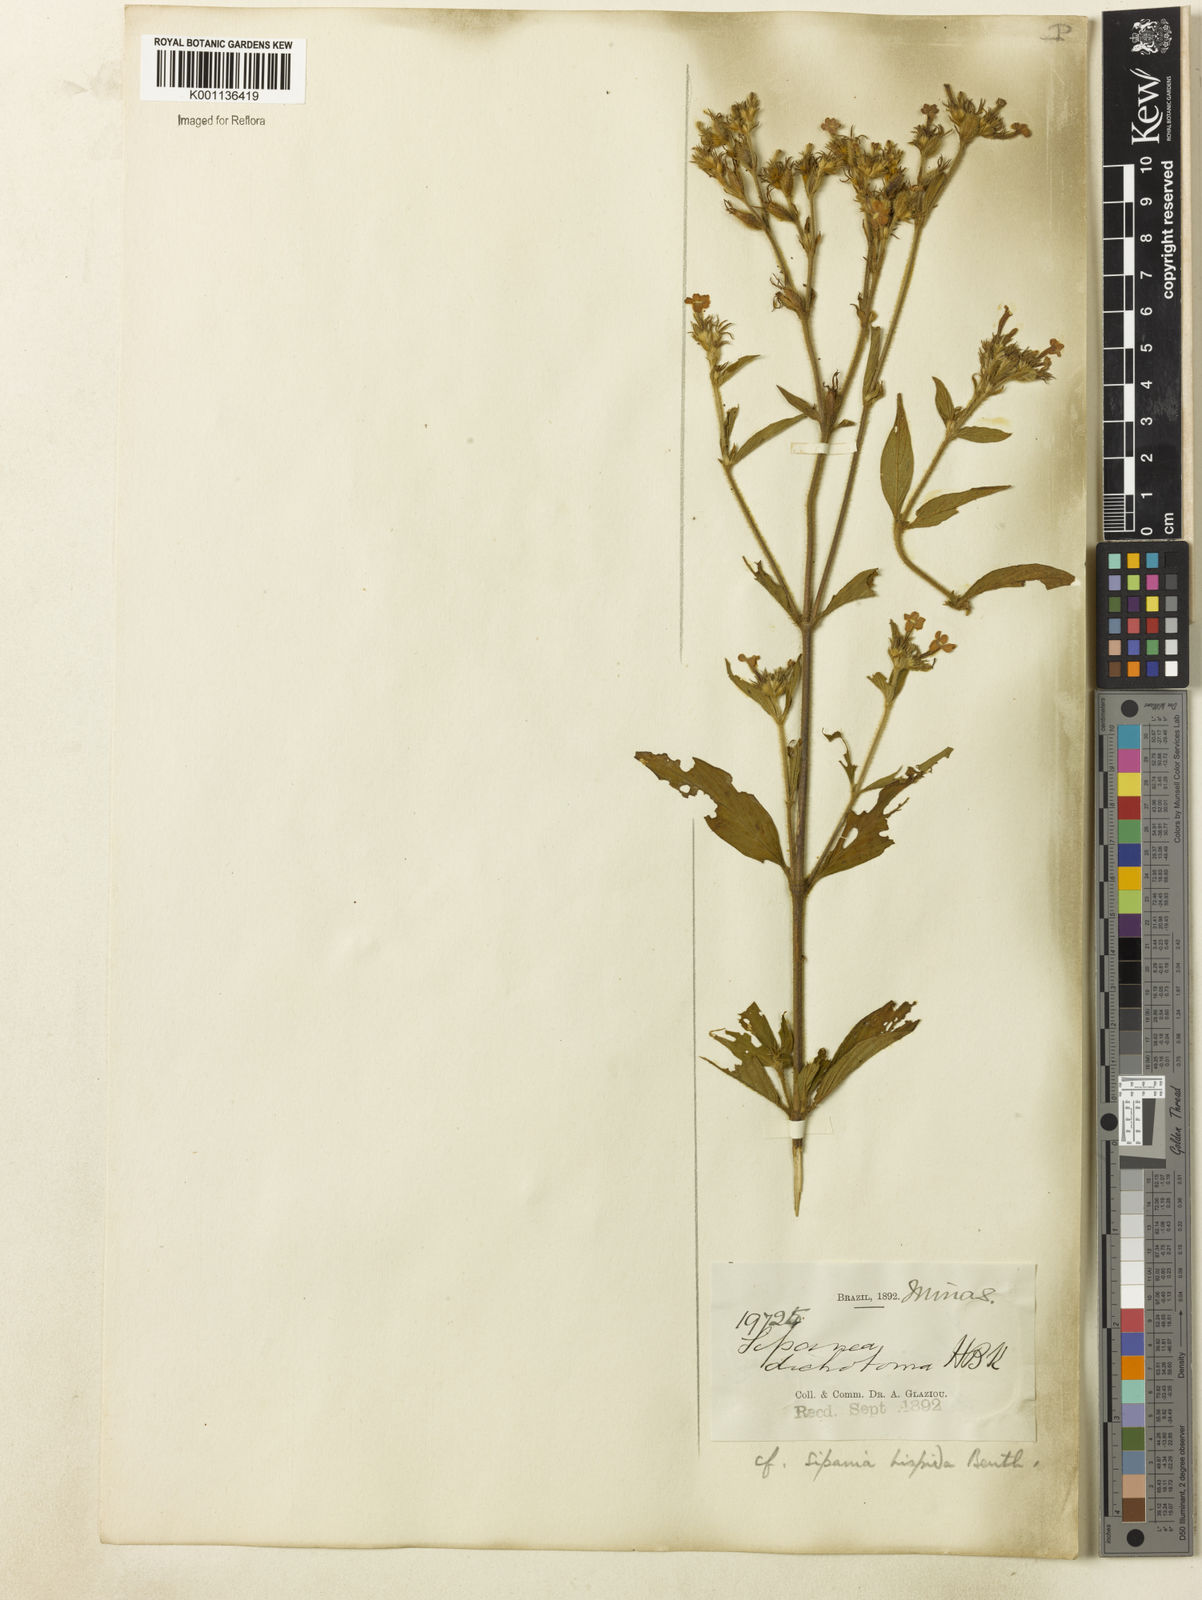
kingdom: Plantae
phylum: Tracheophyta
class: Magnoliopsida
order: Gentianales
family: Rubiaceae
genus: Sipanea
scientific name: Sipanea hispida
